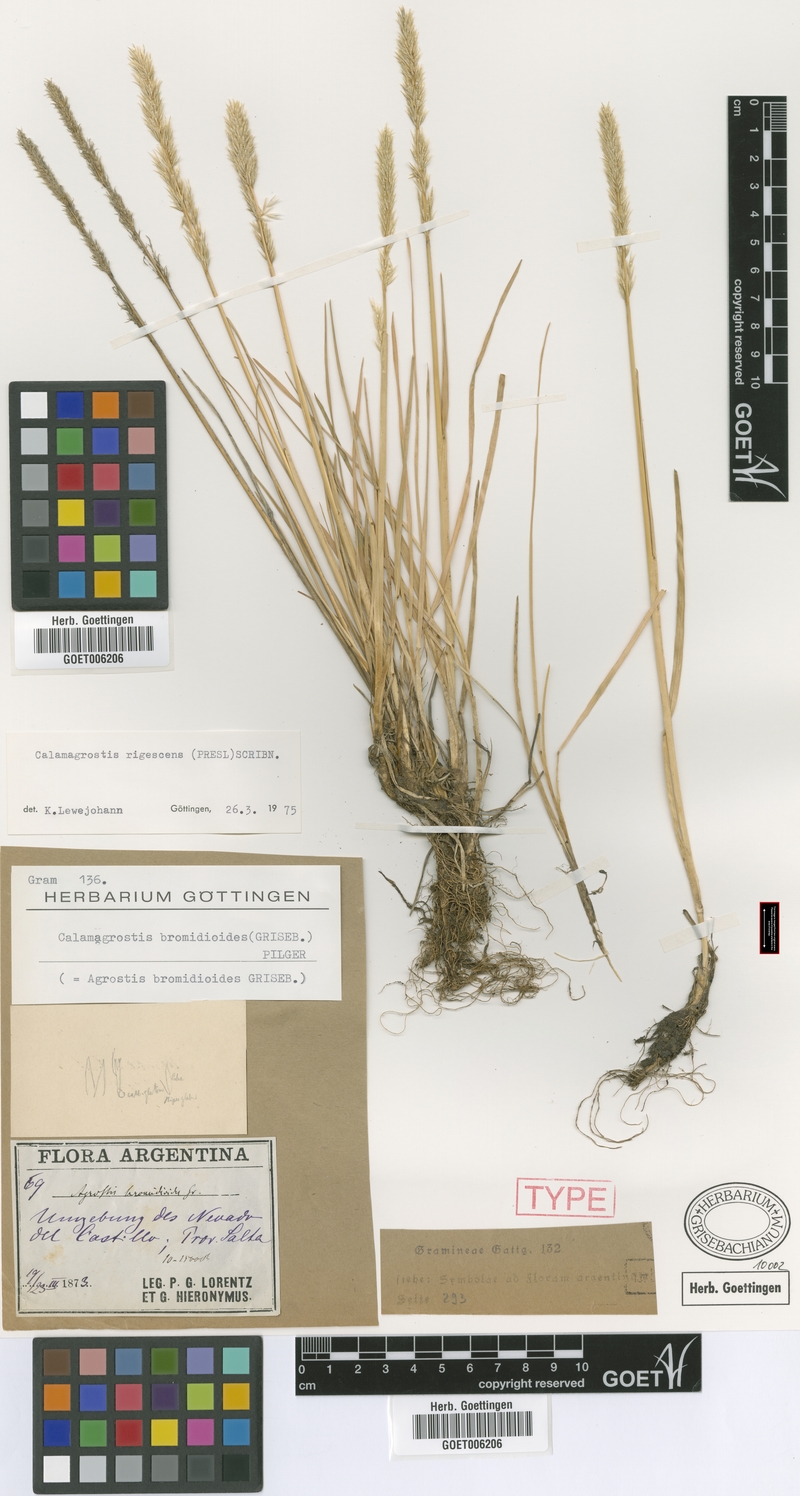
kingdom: Plantae
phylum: Tracheophyta
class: Liliopsida
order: Poales
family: Poaceae
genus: Cinnagrostis
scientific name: Cinnagrostis rigescens
